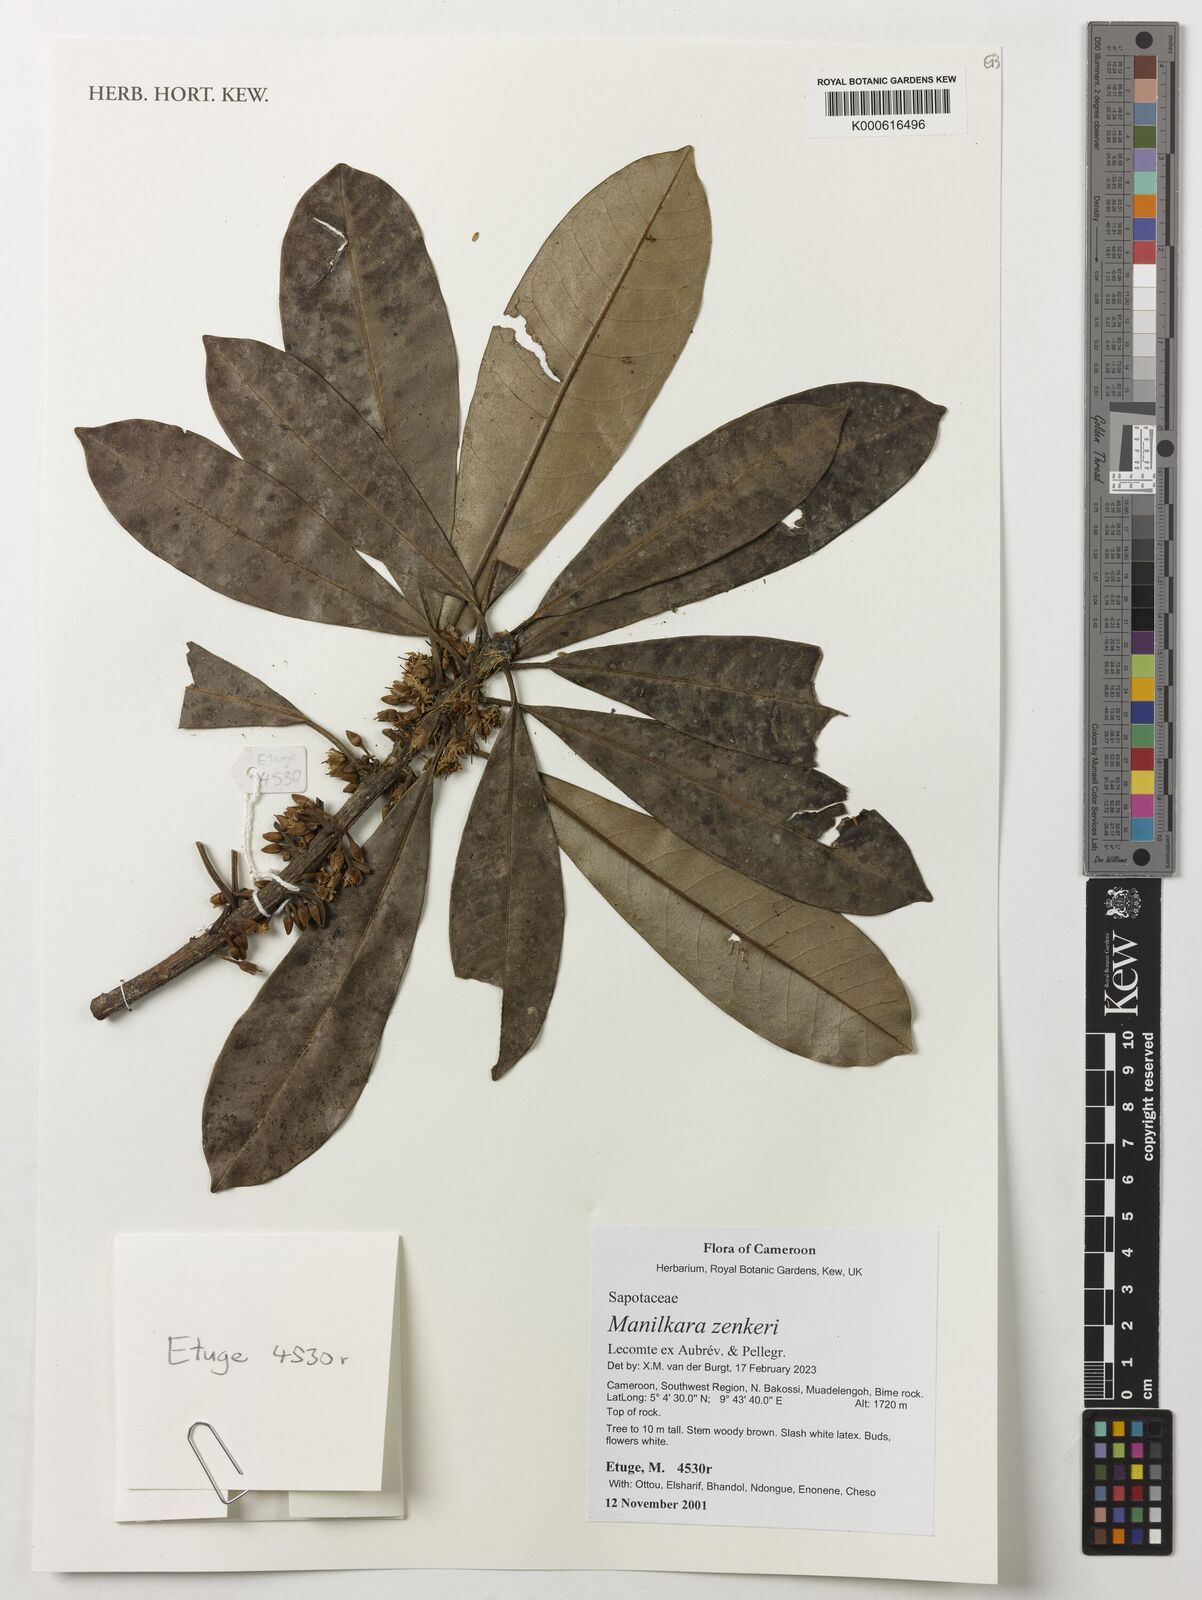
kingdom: Plantae
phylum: Tracheophyta
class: Magnoliopsida
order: Ericales
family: Sapotaceae
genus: Manilkara
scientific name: Manilkara zenkeri
